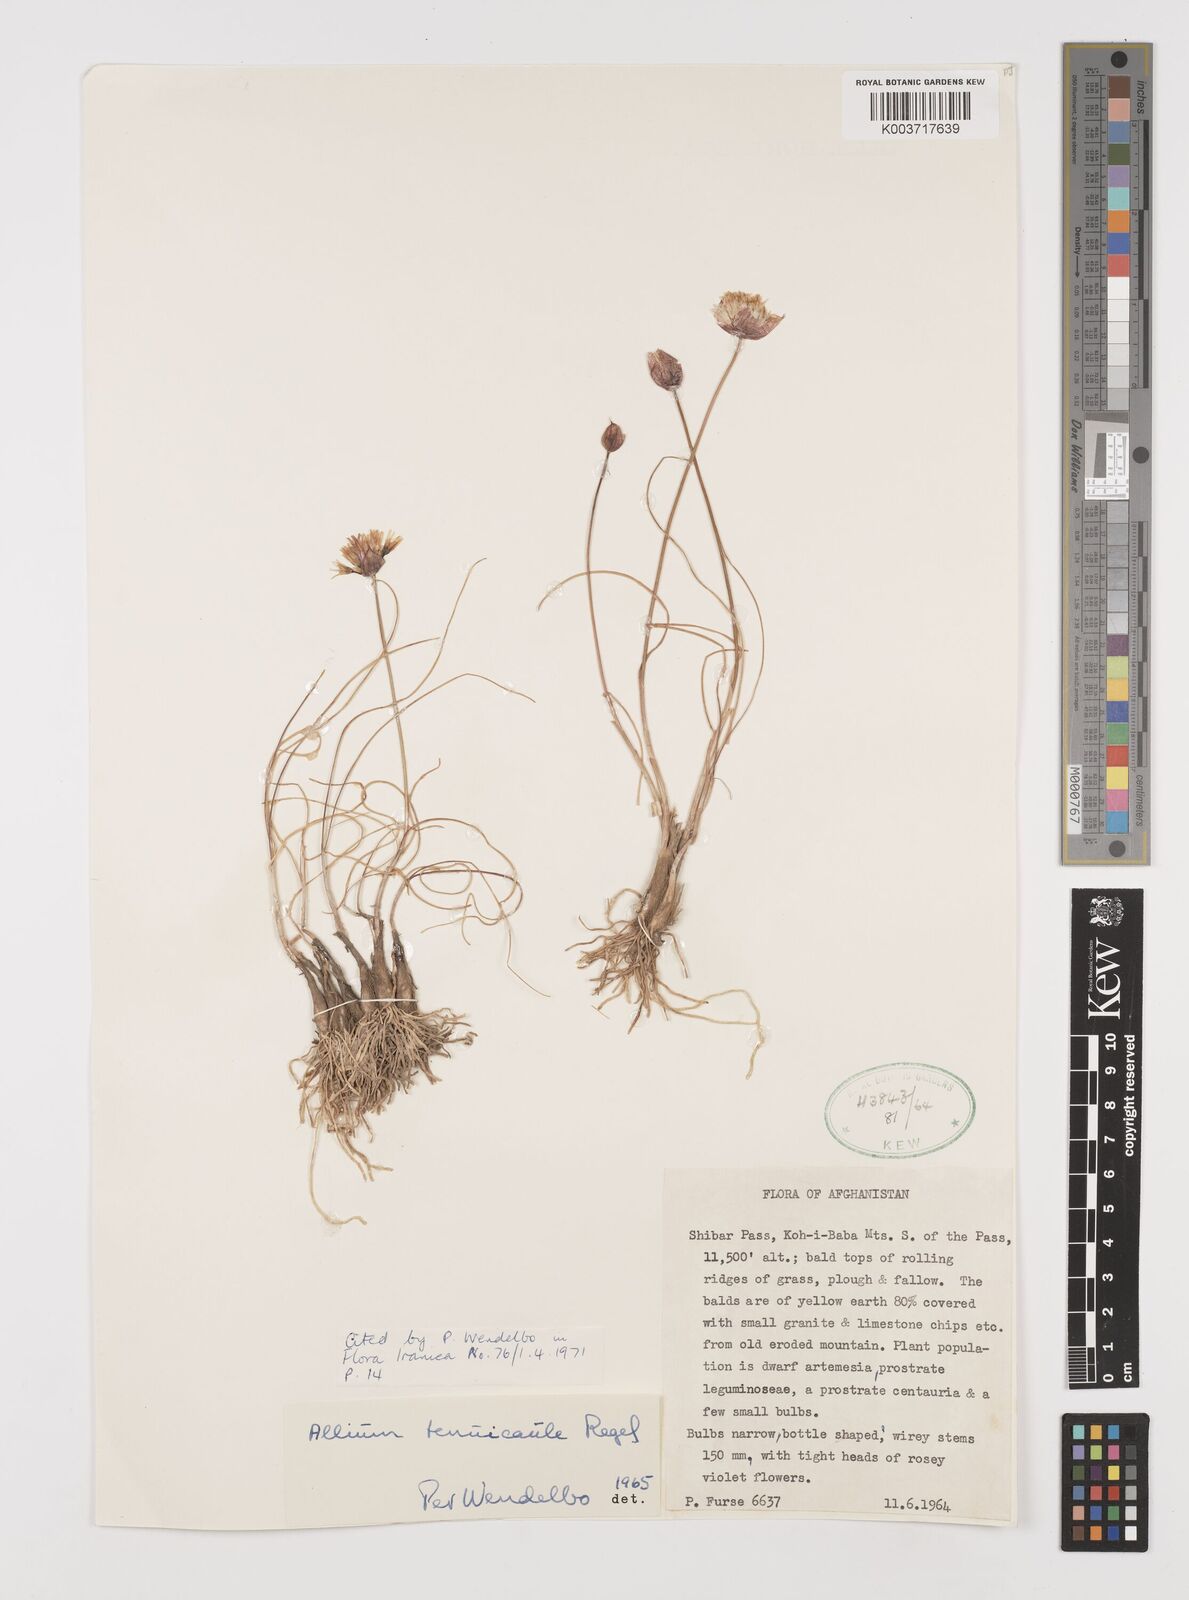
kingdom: Plantae
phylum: Tracheophyta
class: Liliopsida
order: Asparagales
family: Amaryllidaceae
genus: Allium
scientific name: Allium tenuicaule
